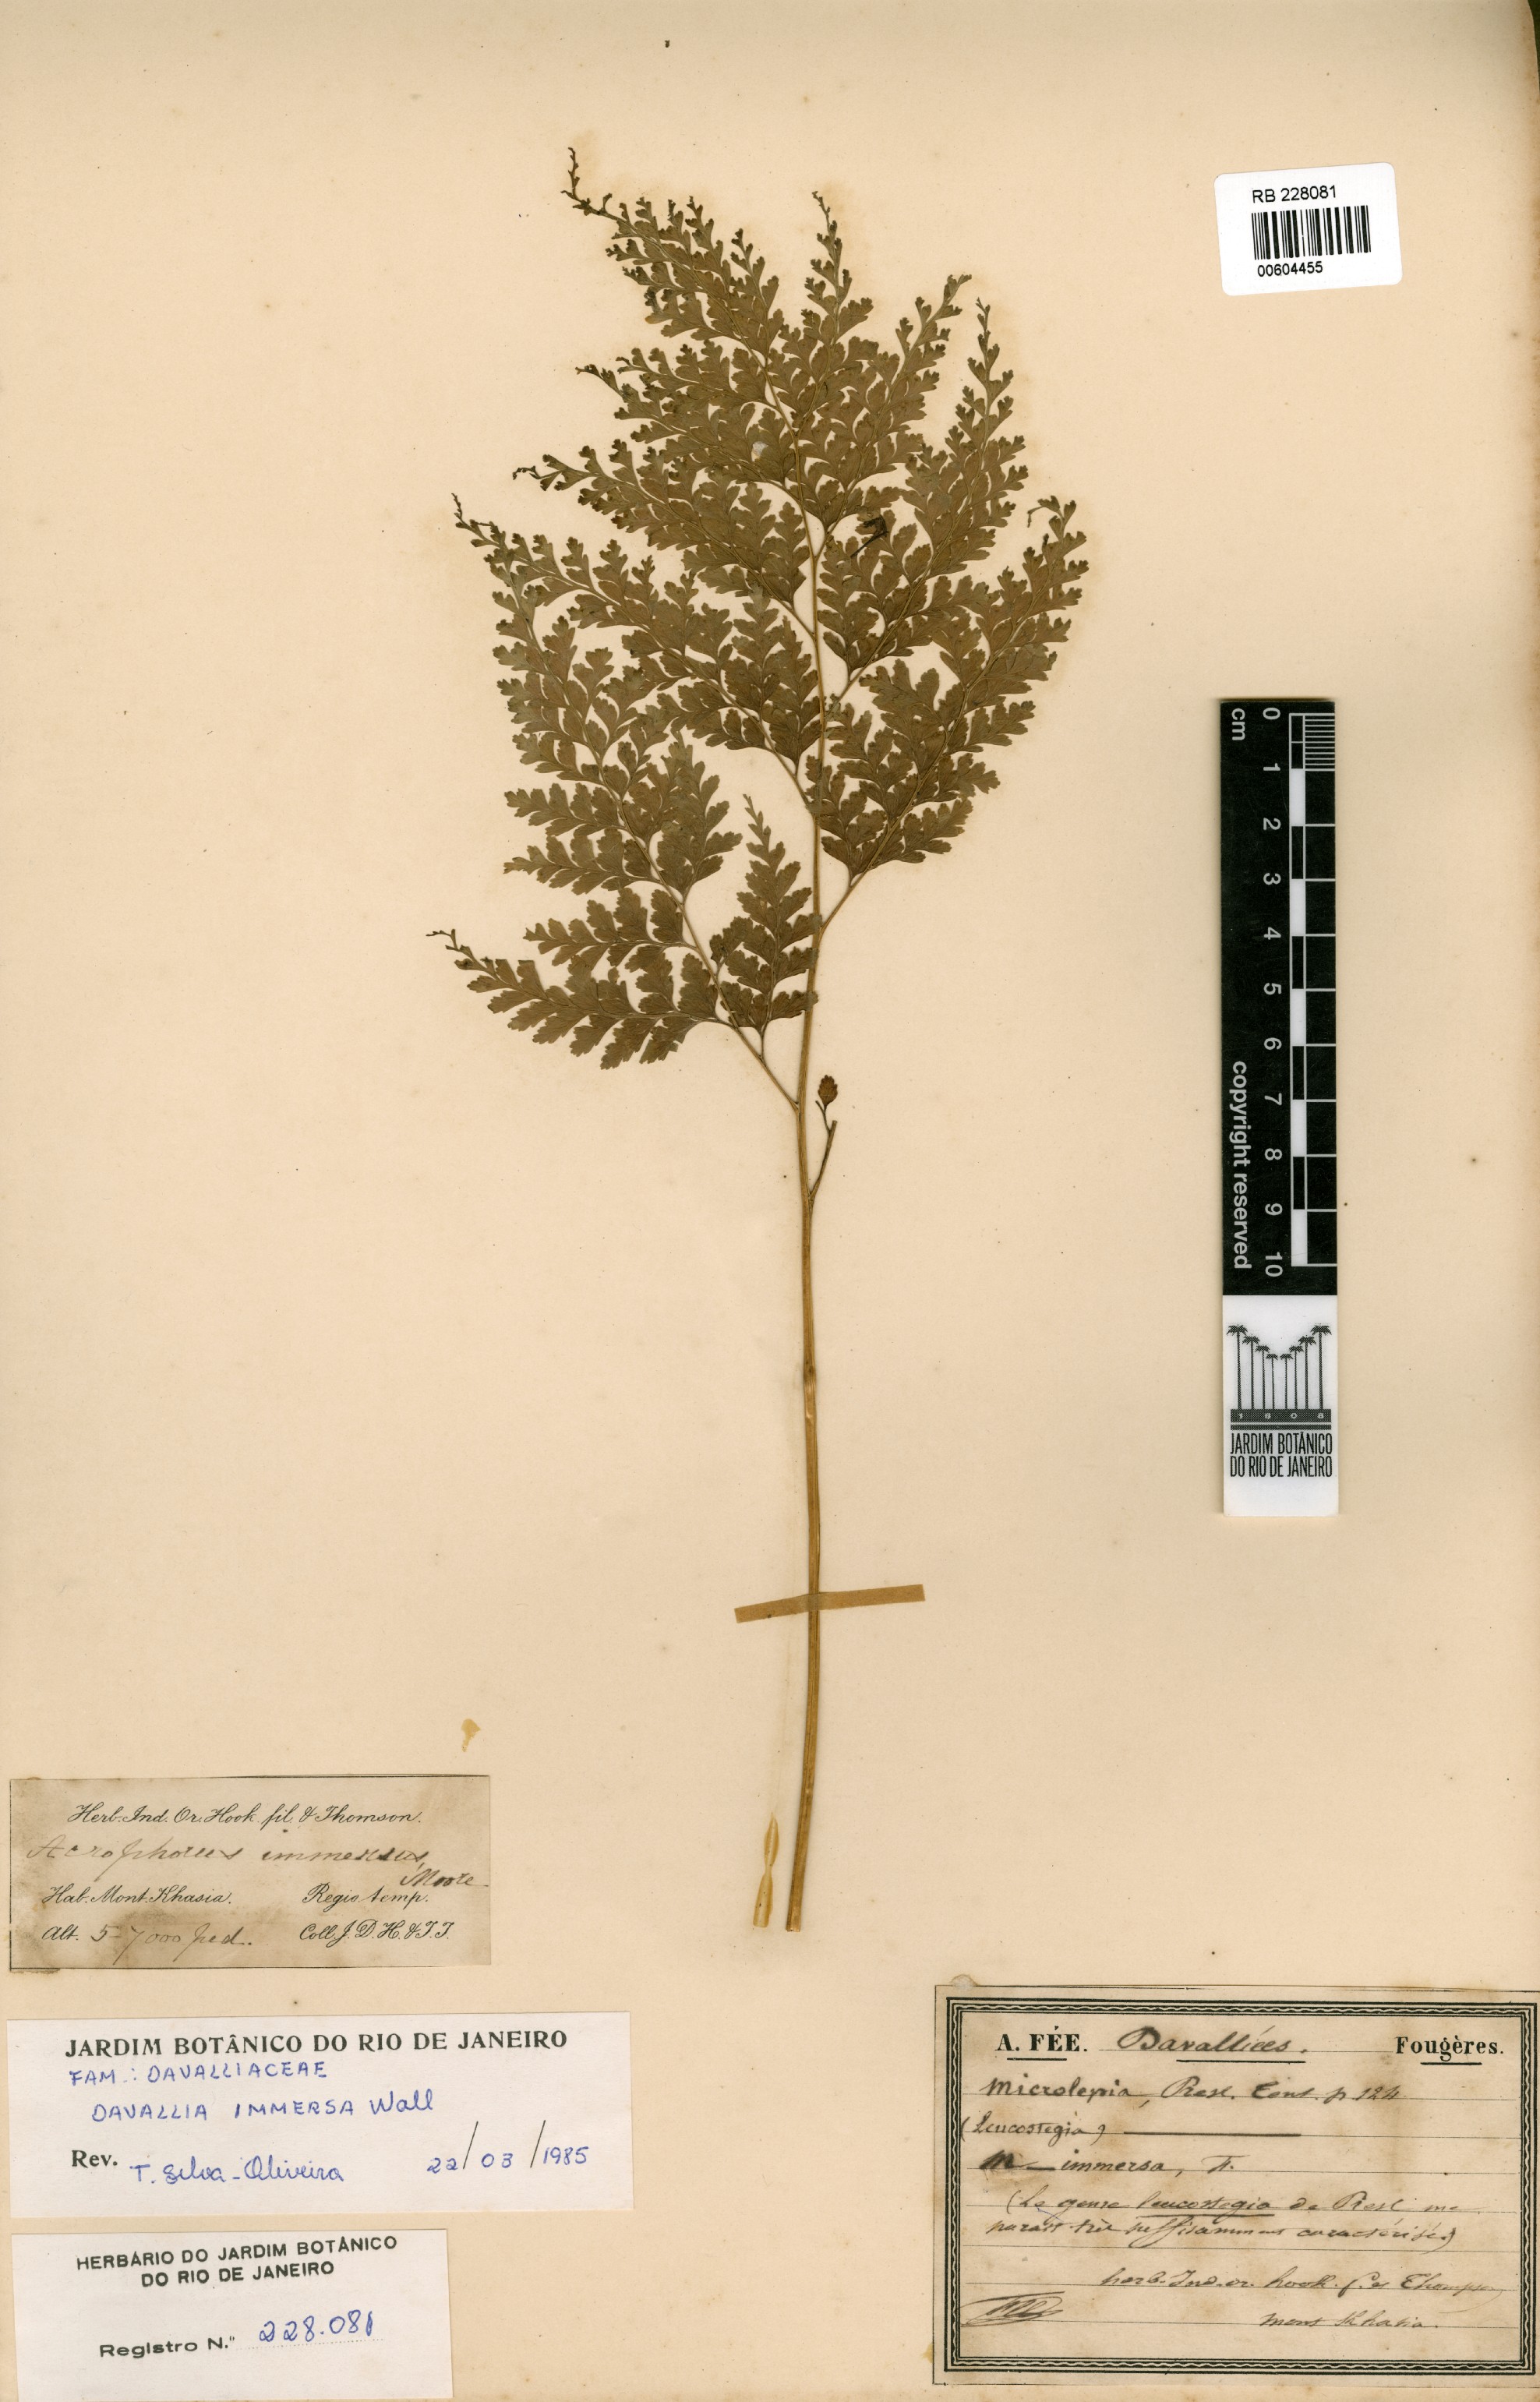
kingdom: Plantae
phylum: Tracheophyta
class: Polypodiopsida
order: Polypodiales
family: Hypodematiaceae
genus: Leucostegia
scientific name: Leucostegia immersa
